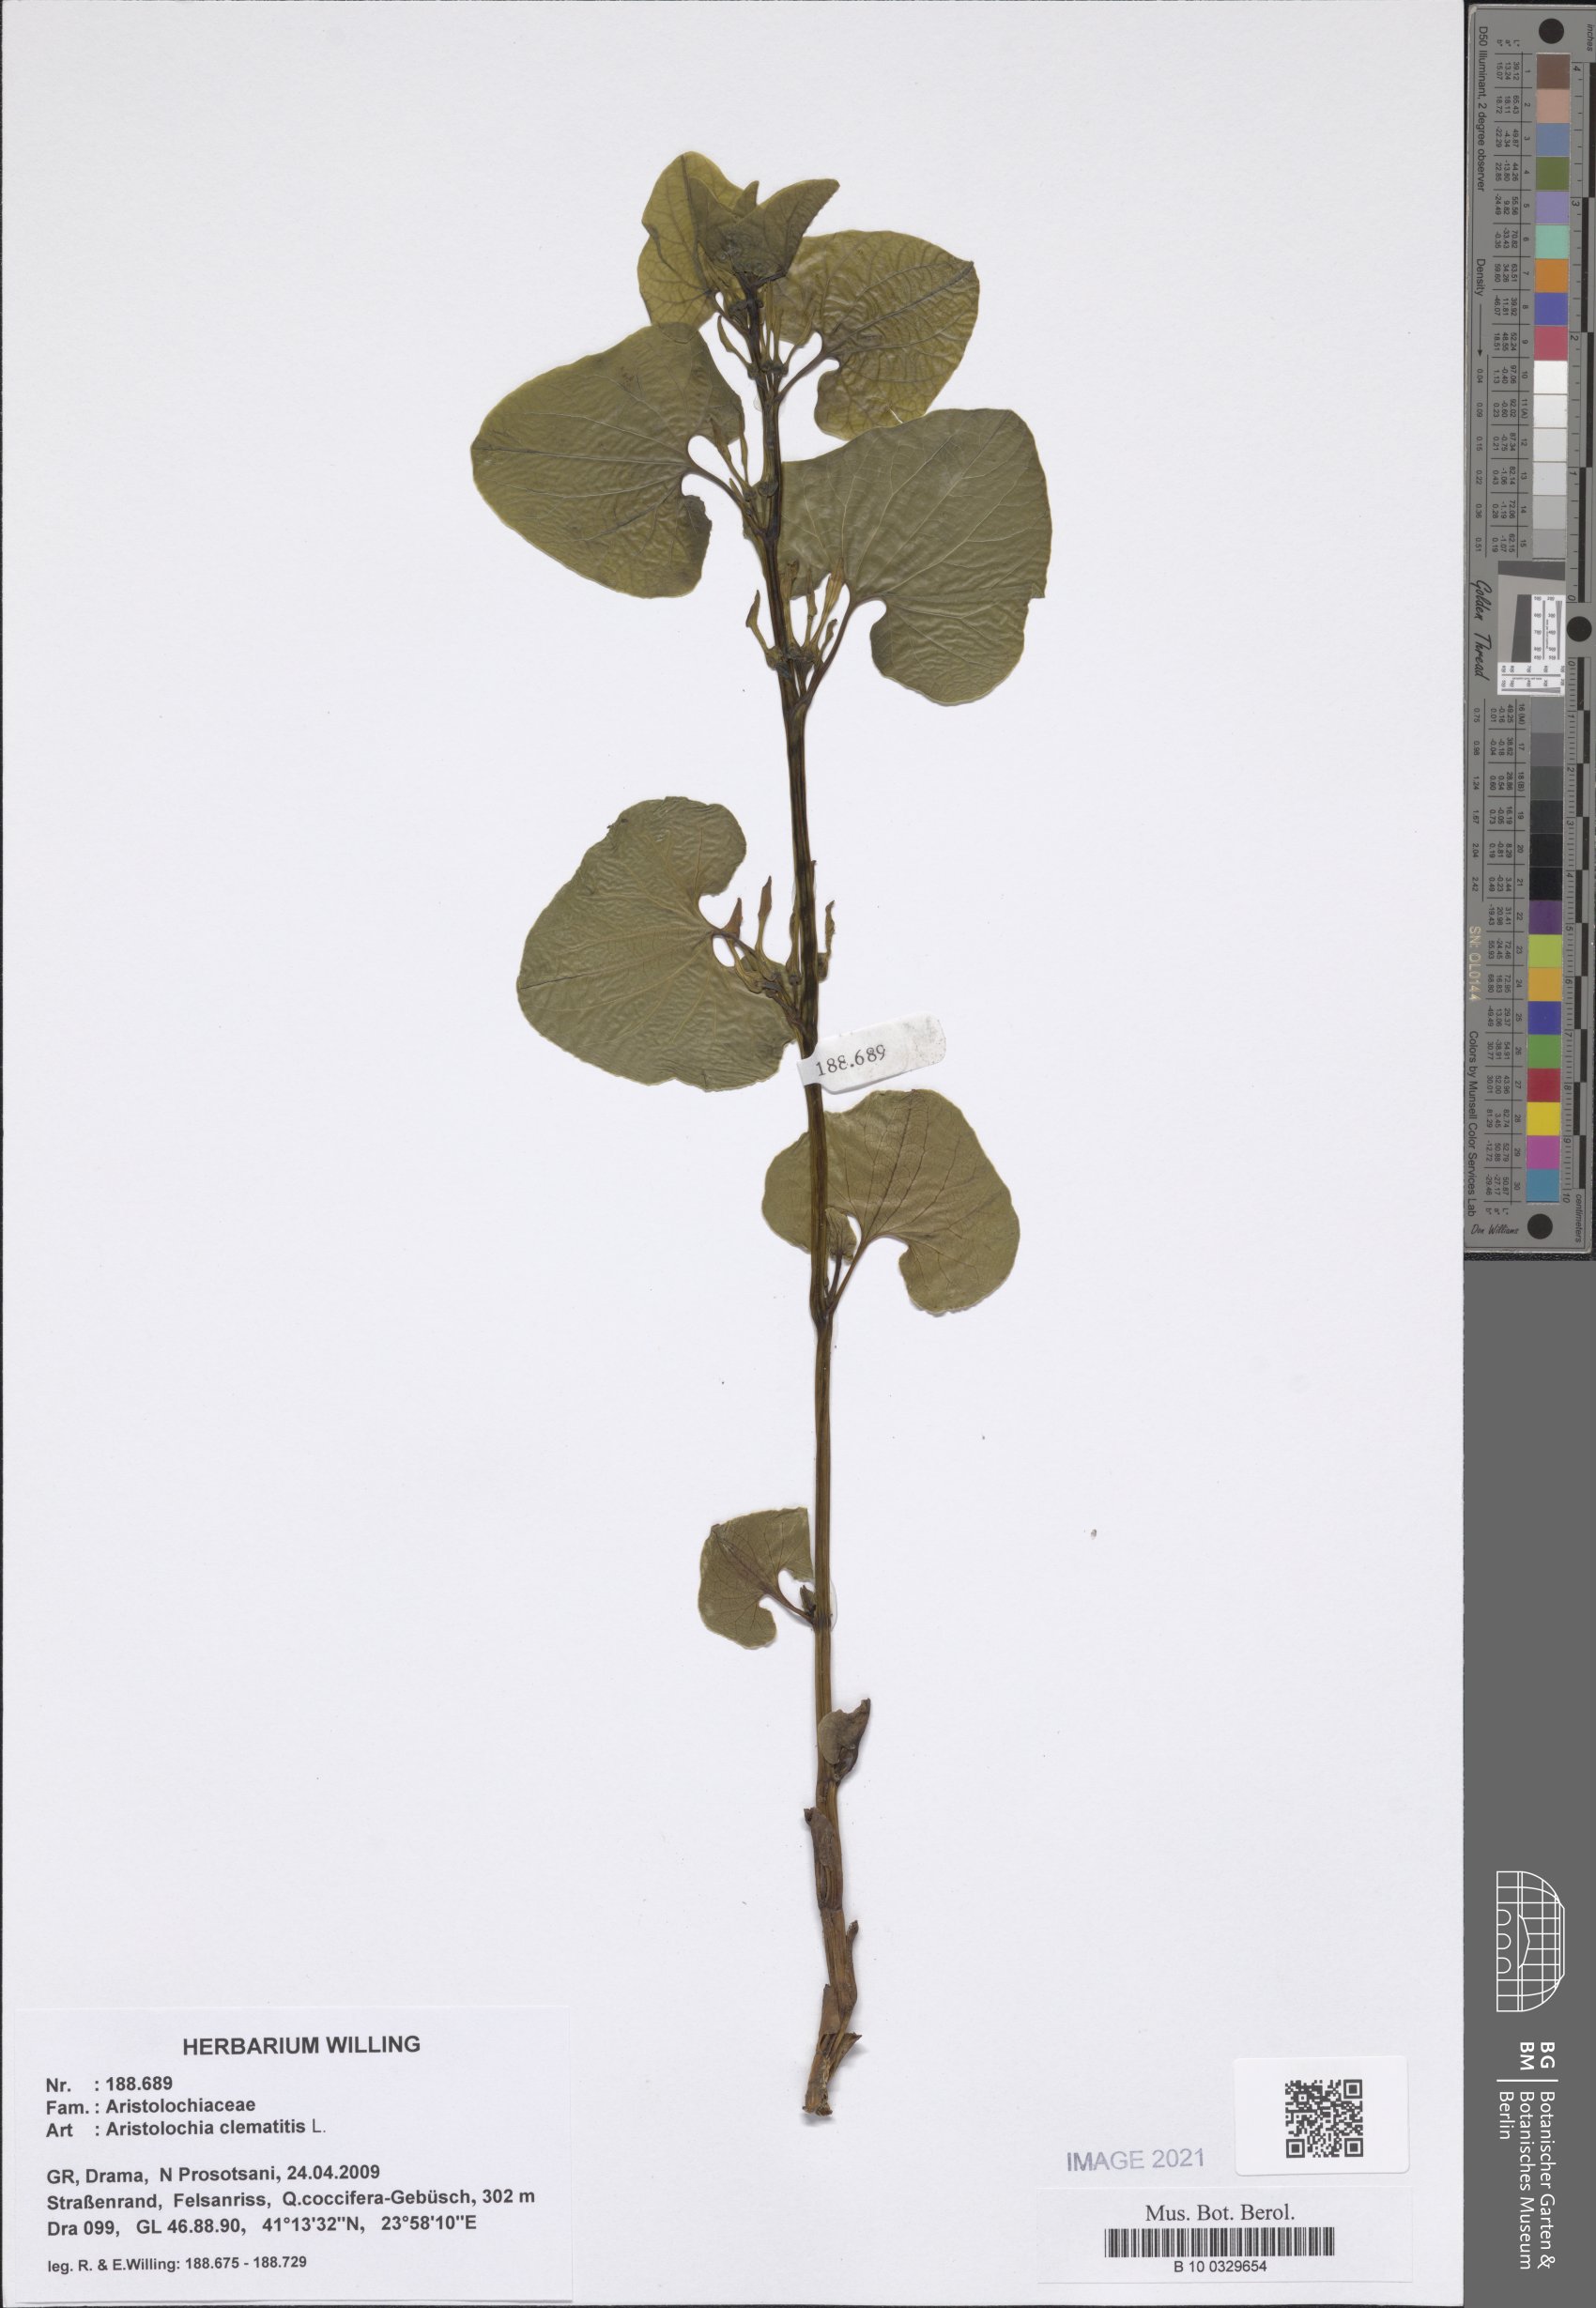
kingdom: Plantae
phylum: Tracheophyta
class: Magnoliopsida
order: Piperales
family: Aristolochiaceae
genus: Aristolochia
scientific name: Aristolochia clematitis
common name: Birthwort
